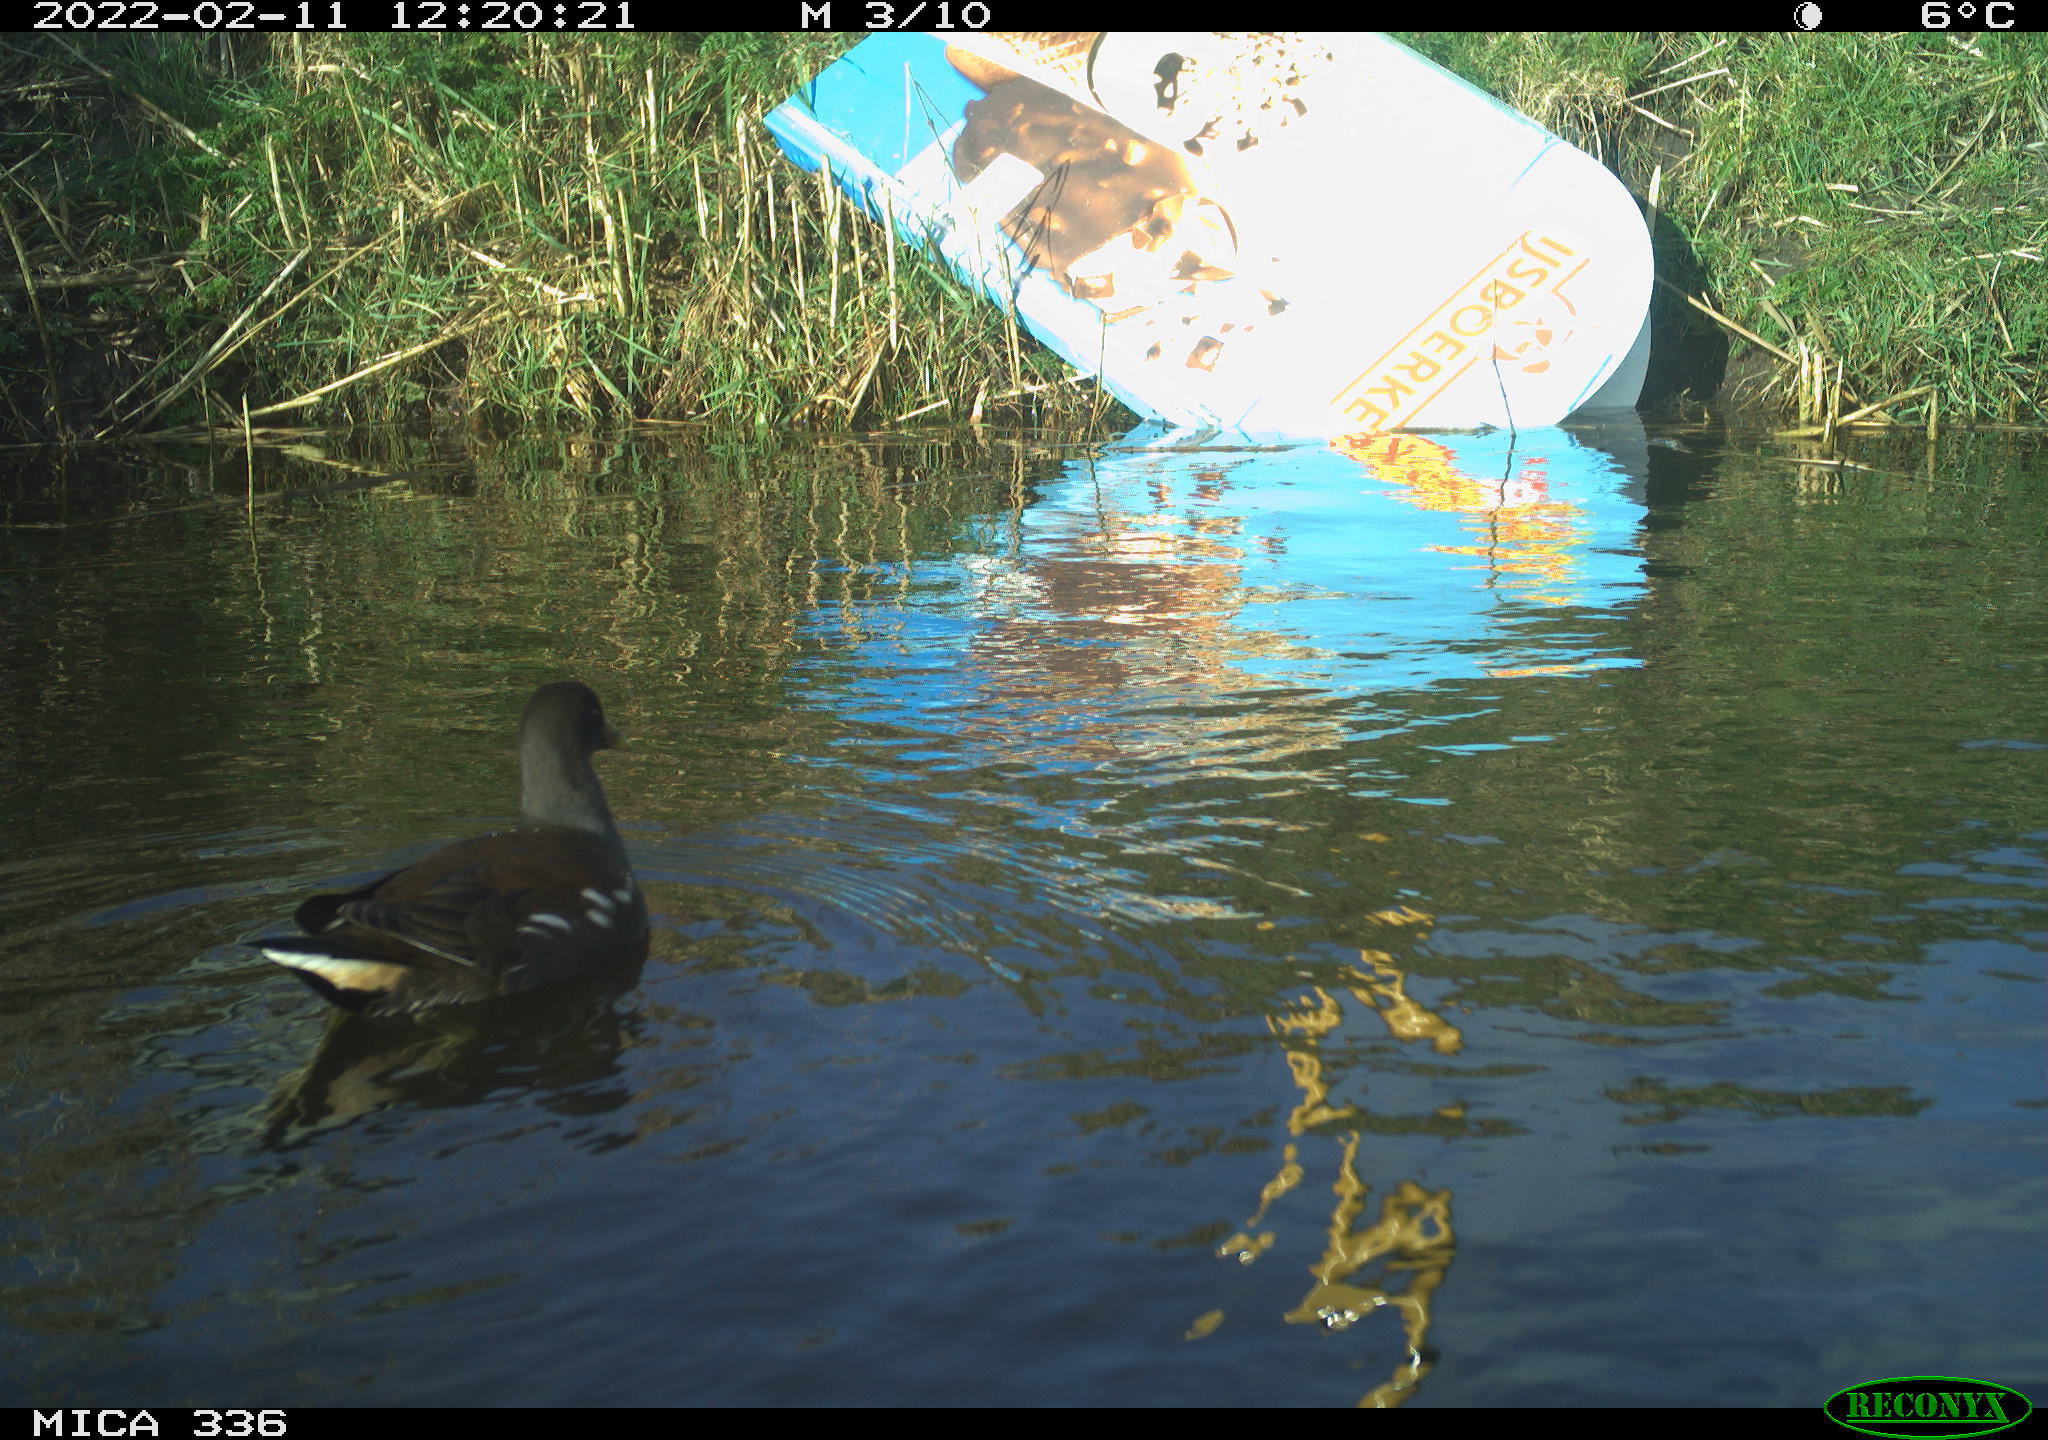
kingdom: Animalia
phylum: Chordata
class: Aves
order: Gruiformes
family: Rallidae
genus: Gallinula
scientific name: Gallinula chloropus
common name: Common moorhen
